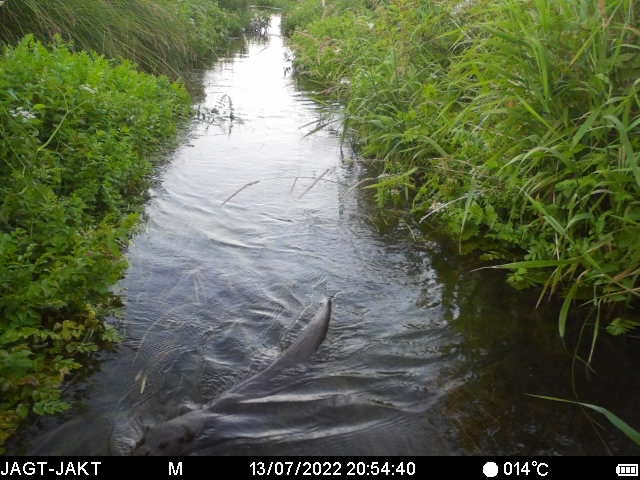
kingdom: Animalia
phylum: Chordata
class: Mammalia
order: Carnivora
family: Mustelidae
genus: Lutra
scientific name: Lutra lutra
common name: Odder
